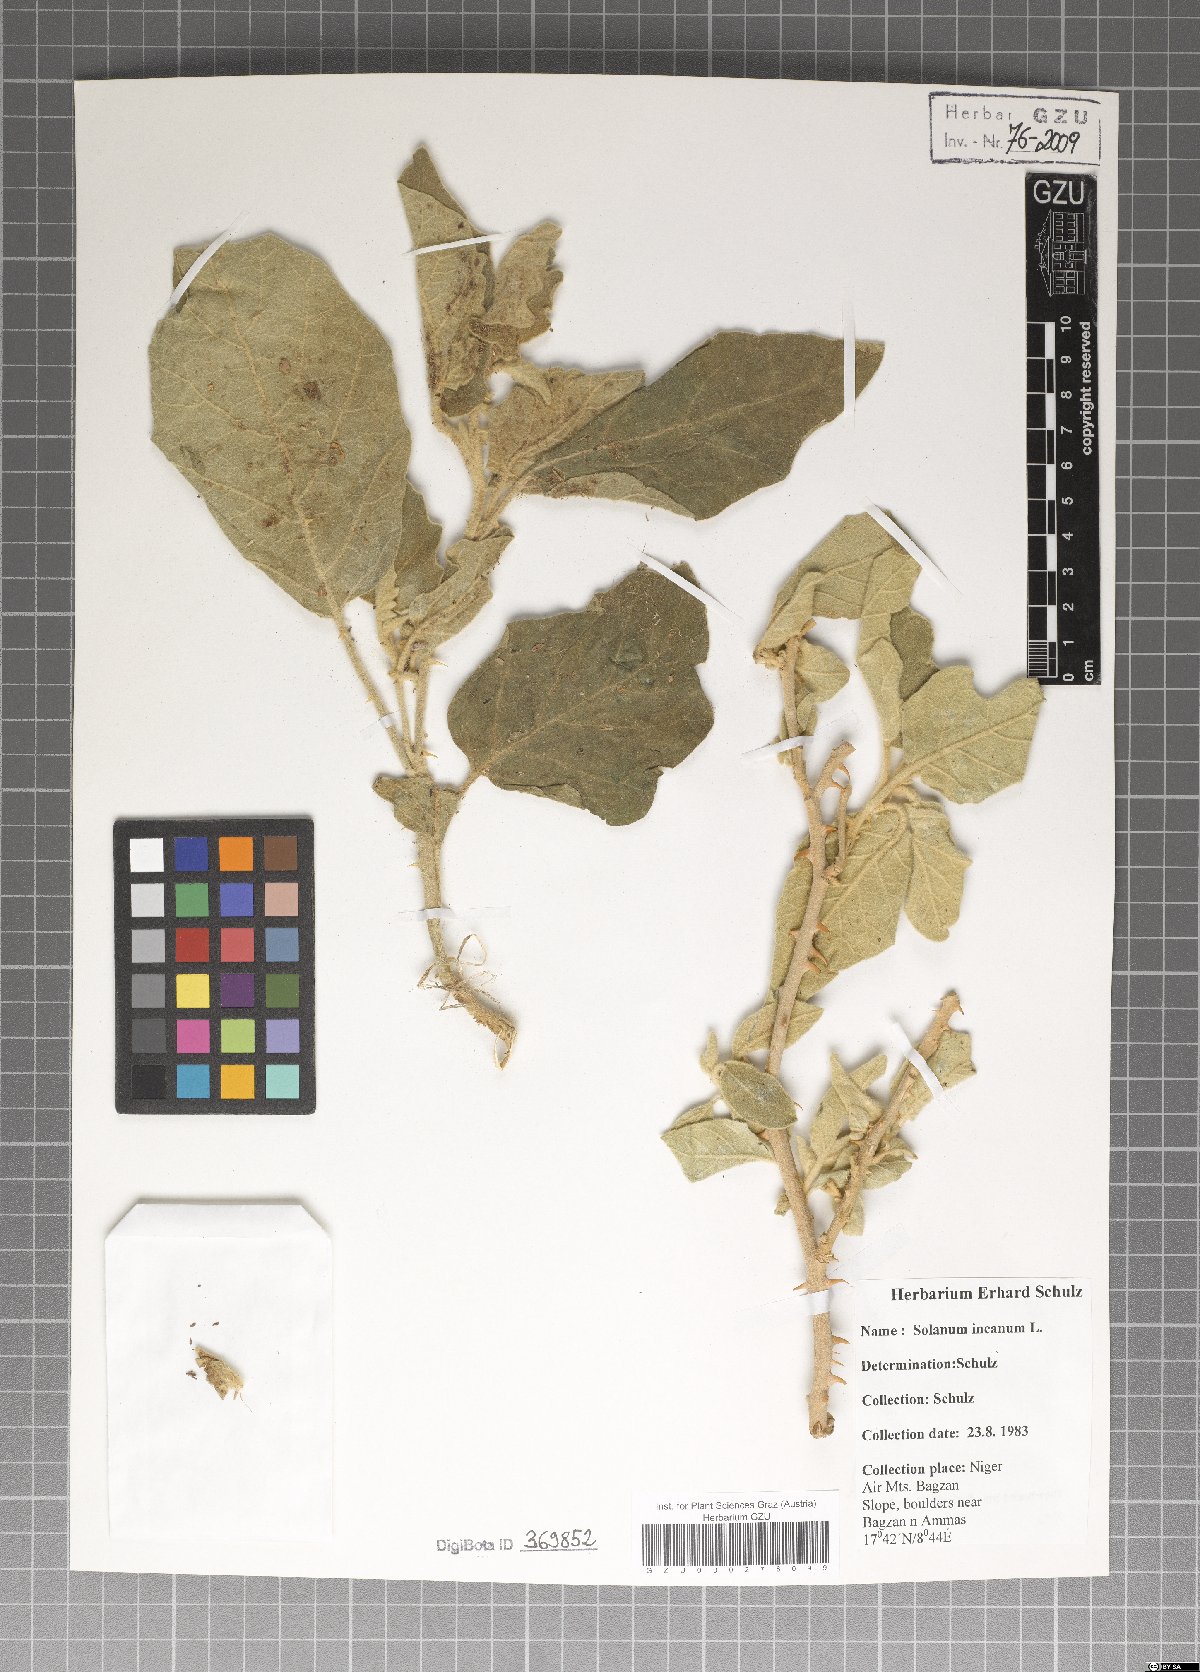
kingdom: Plantae
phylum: Tracheophyta
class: Magnoliopsida
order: Solanales
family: Solanaceae
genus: Solanum
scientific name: Solanum incanum
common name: Bitter apple
